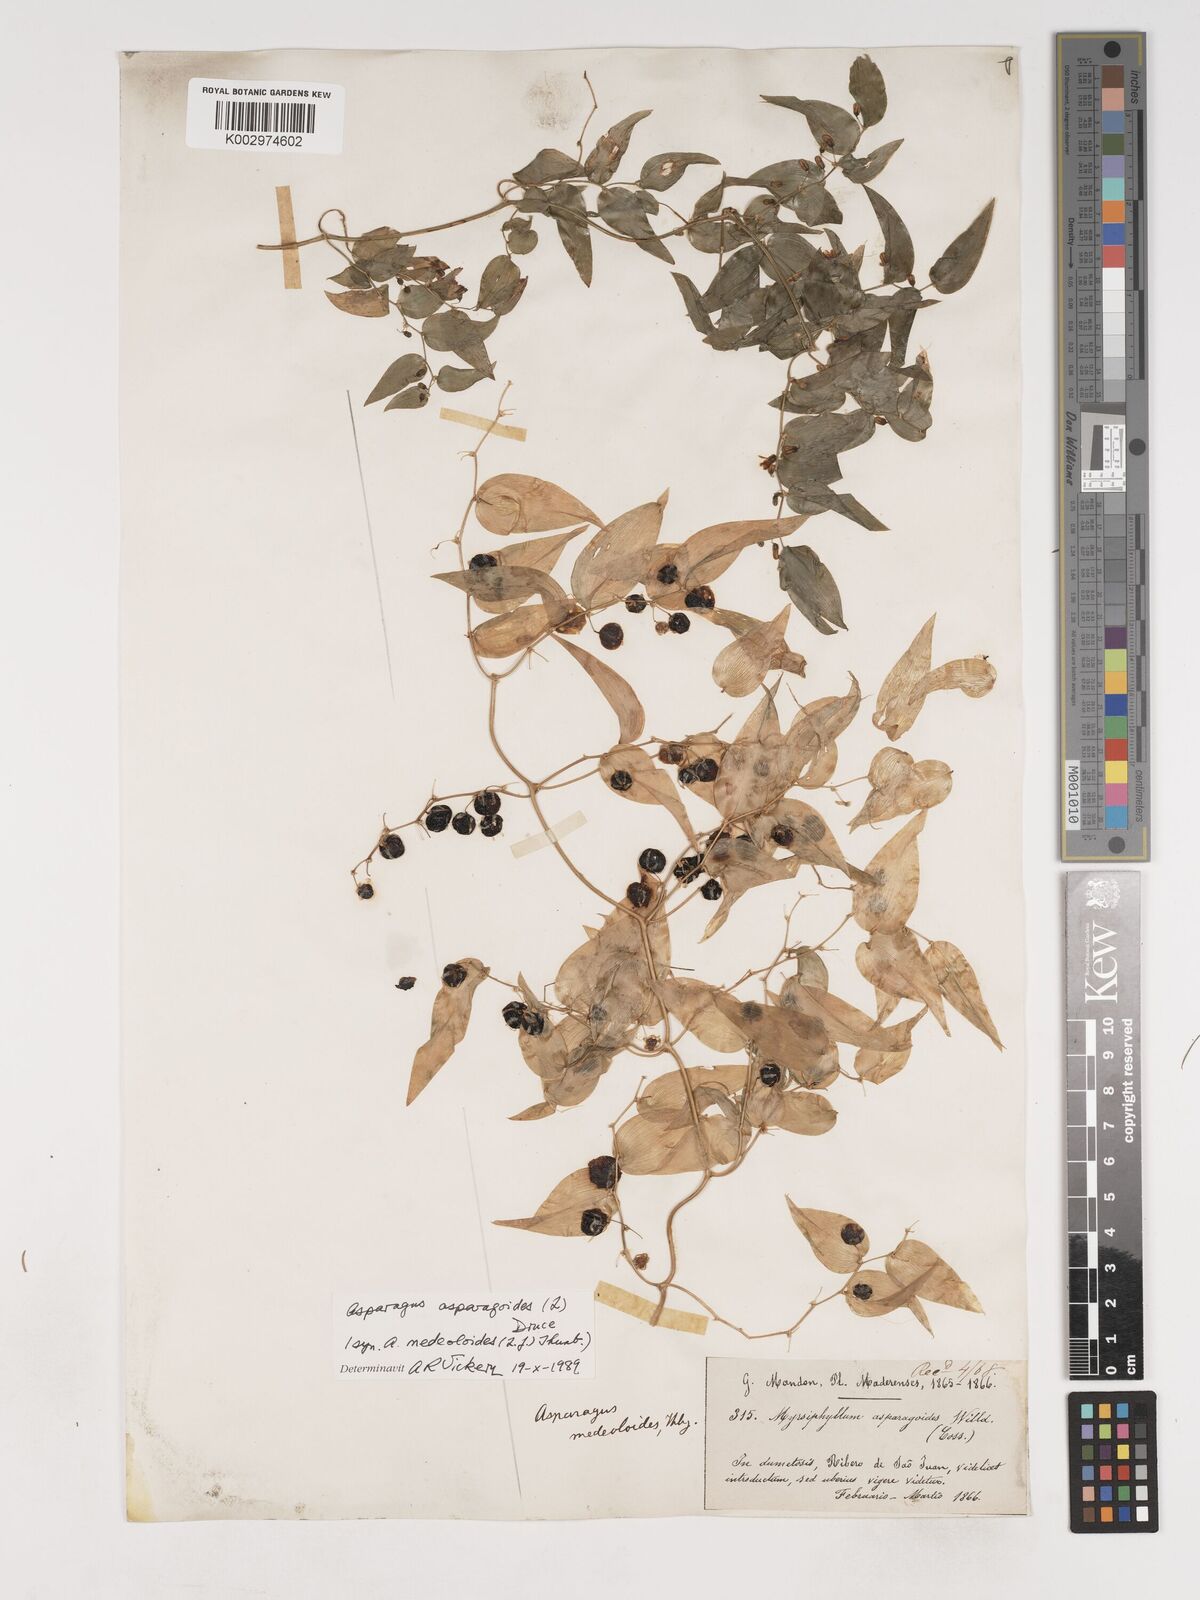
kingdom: Plantae
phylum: Tracheophyta
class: Liliopsida
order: Asparagales
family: Asparagaceae
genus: Asparagus
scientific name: Asparagus asparagoides
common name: African asparagus fern
